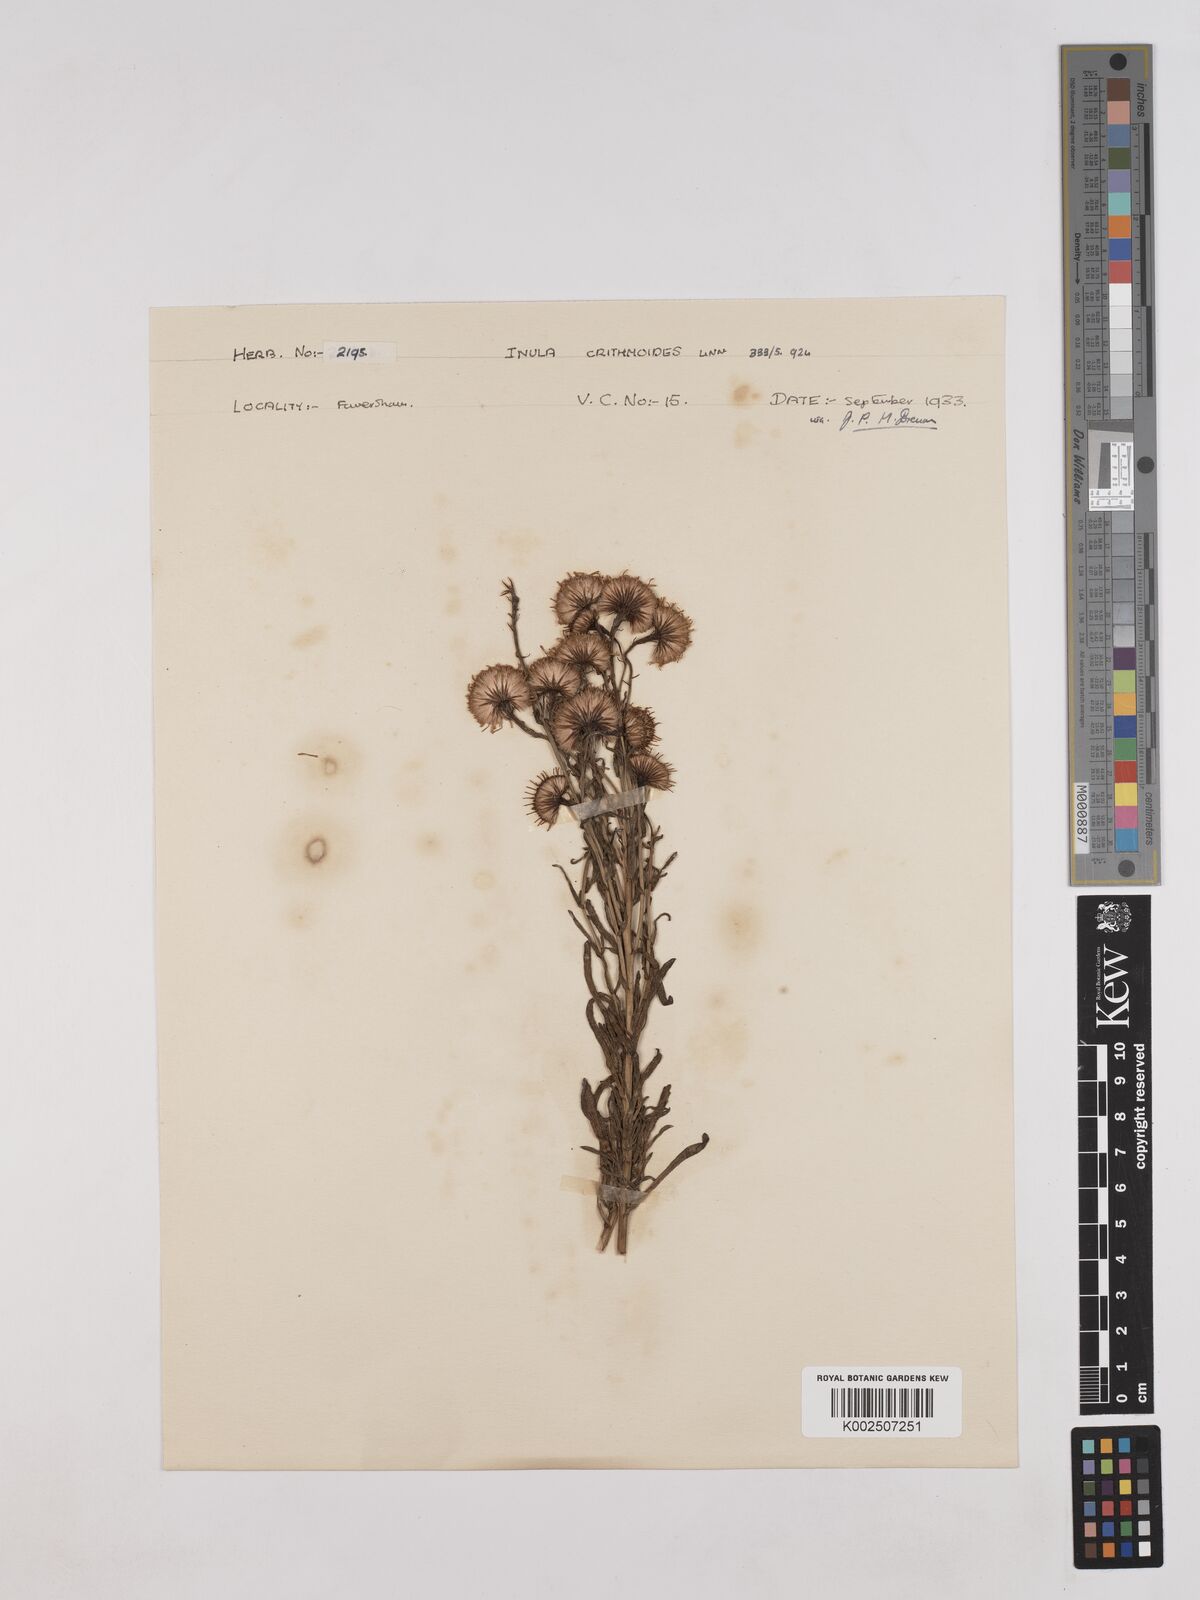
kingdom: Plantae
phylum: Tracheophyta
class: Magnoliopsida
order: Asterales
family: Asteraceae
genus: Limbarda
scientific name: Limbarda crithmoides
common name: Golden samphire
